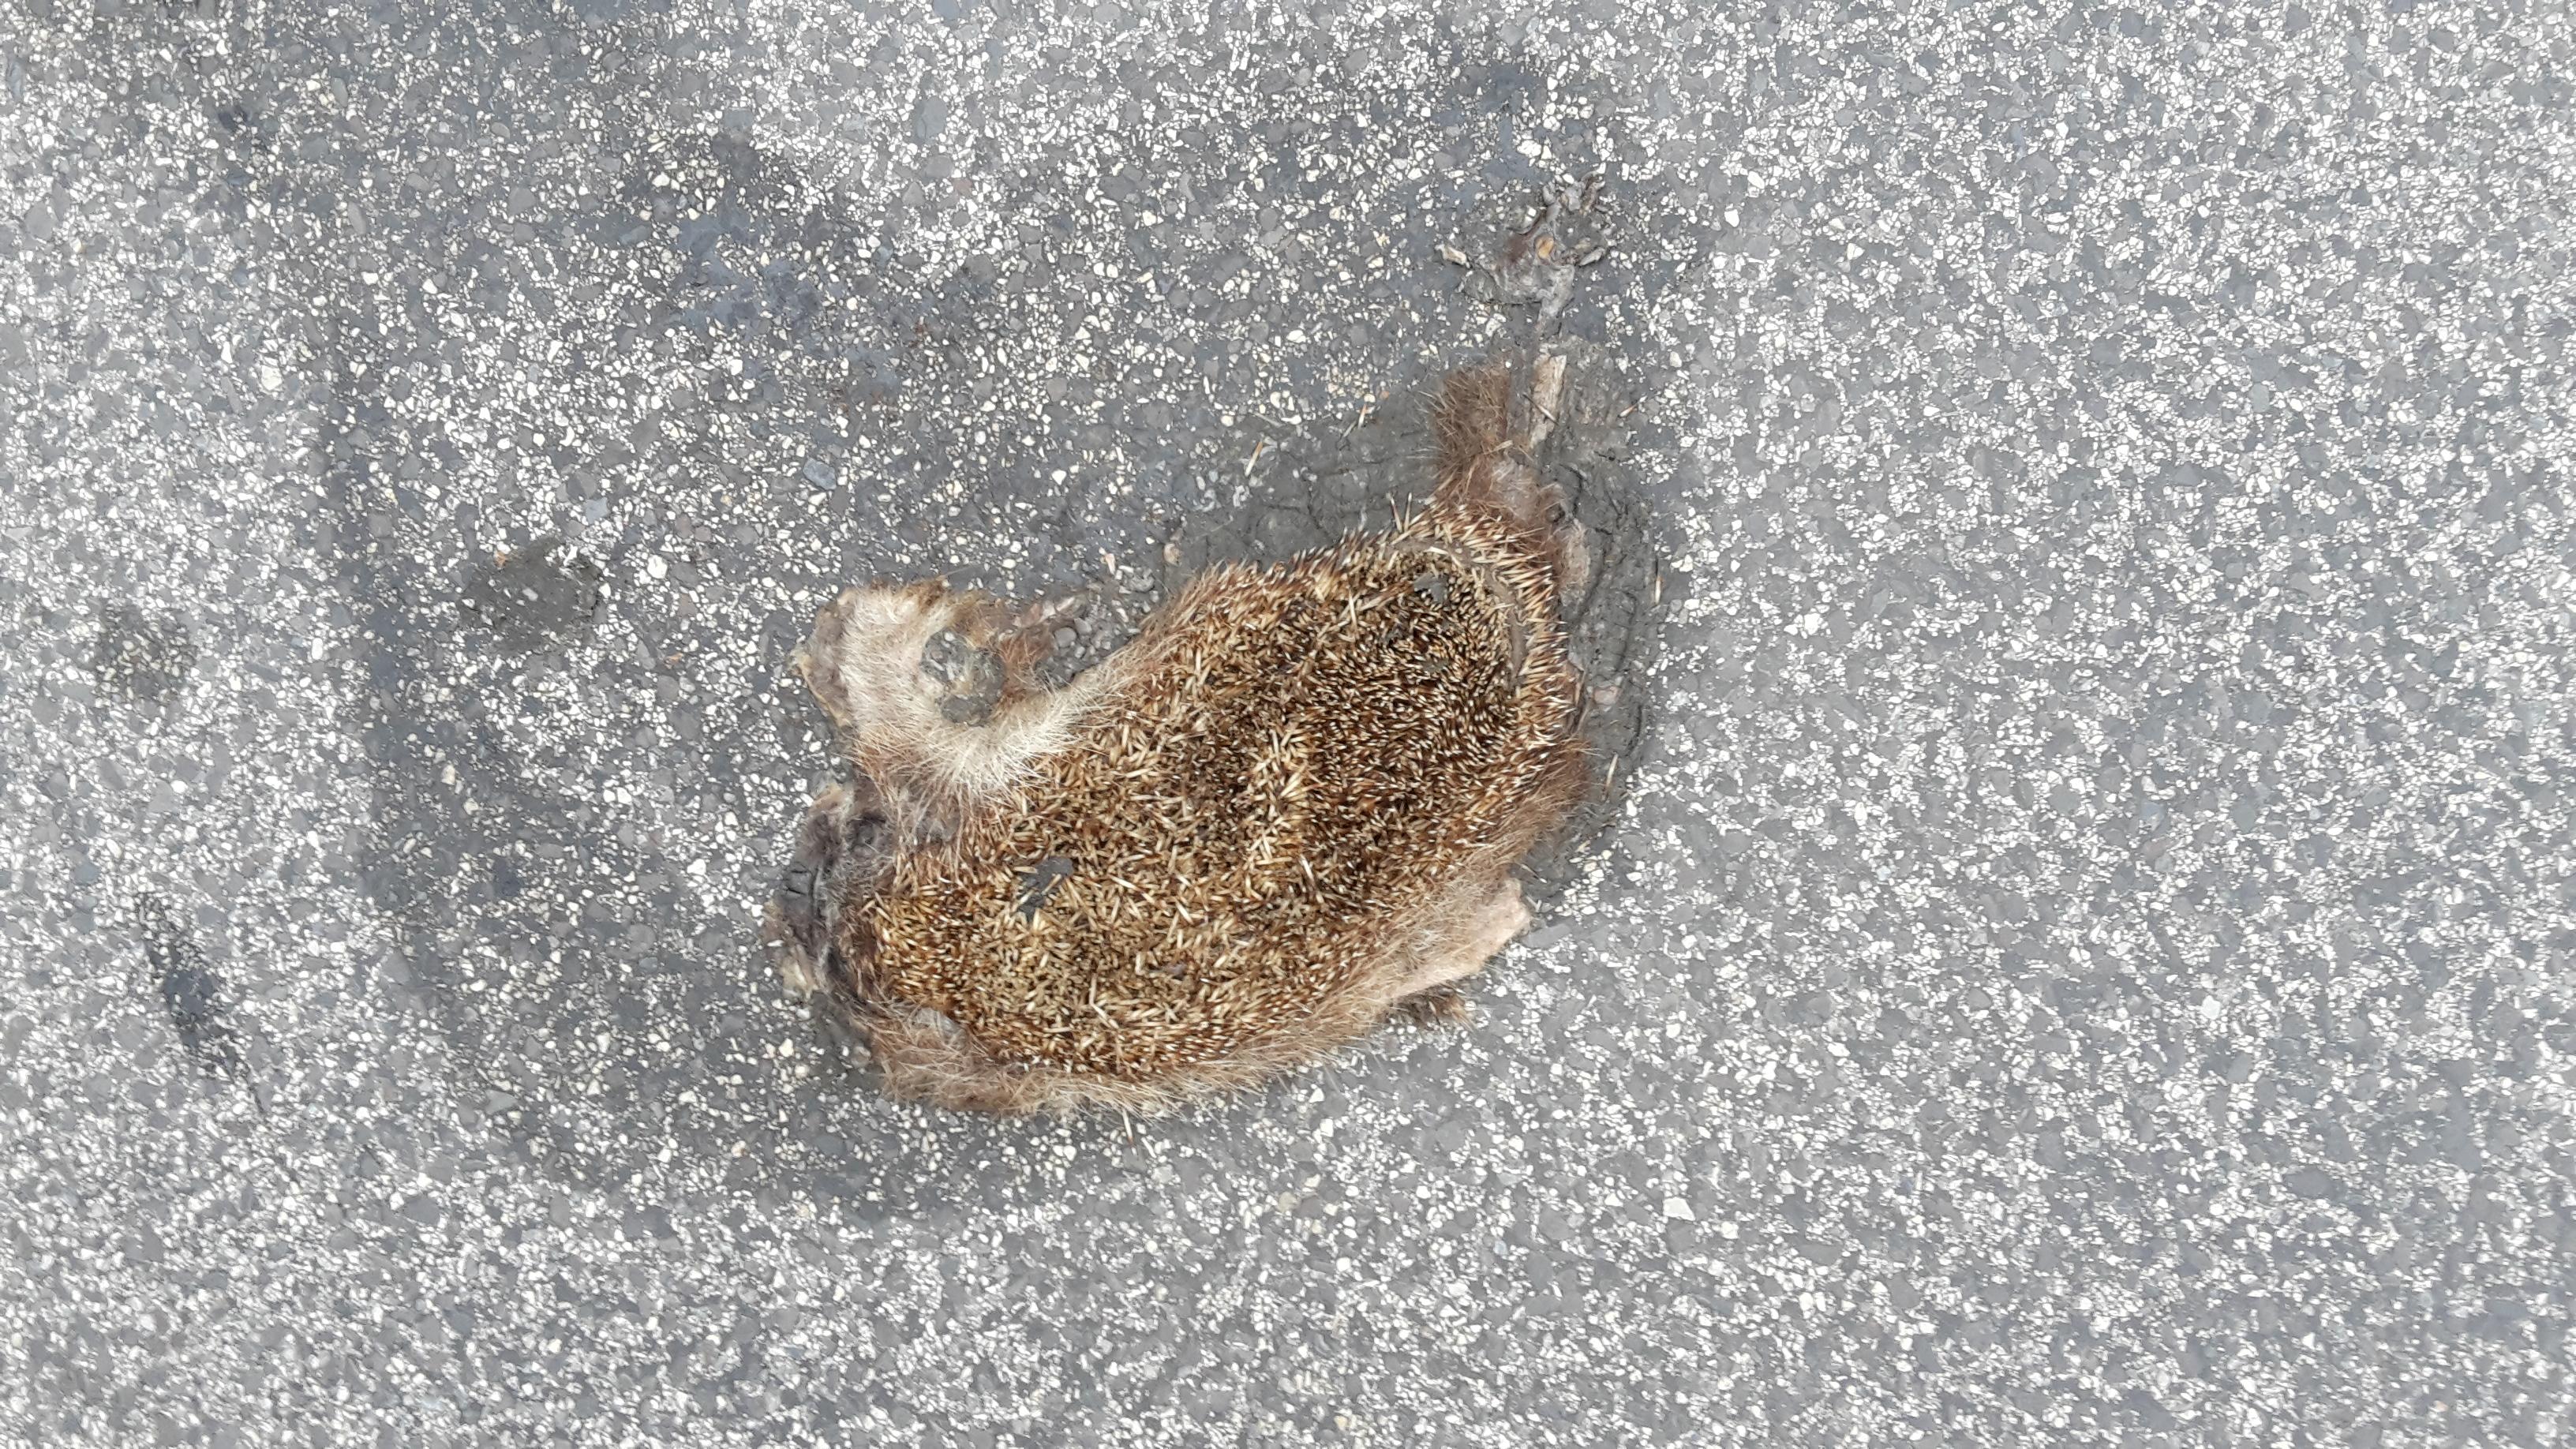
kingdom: Animalia
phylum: Chordata
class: Mammalia
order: Erinaceomorpha
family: Erinaceidae
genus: Erinaceus
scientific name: Erinaceus
